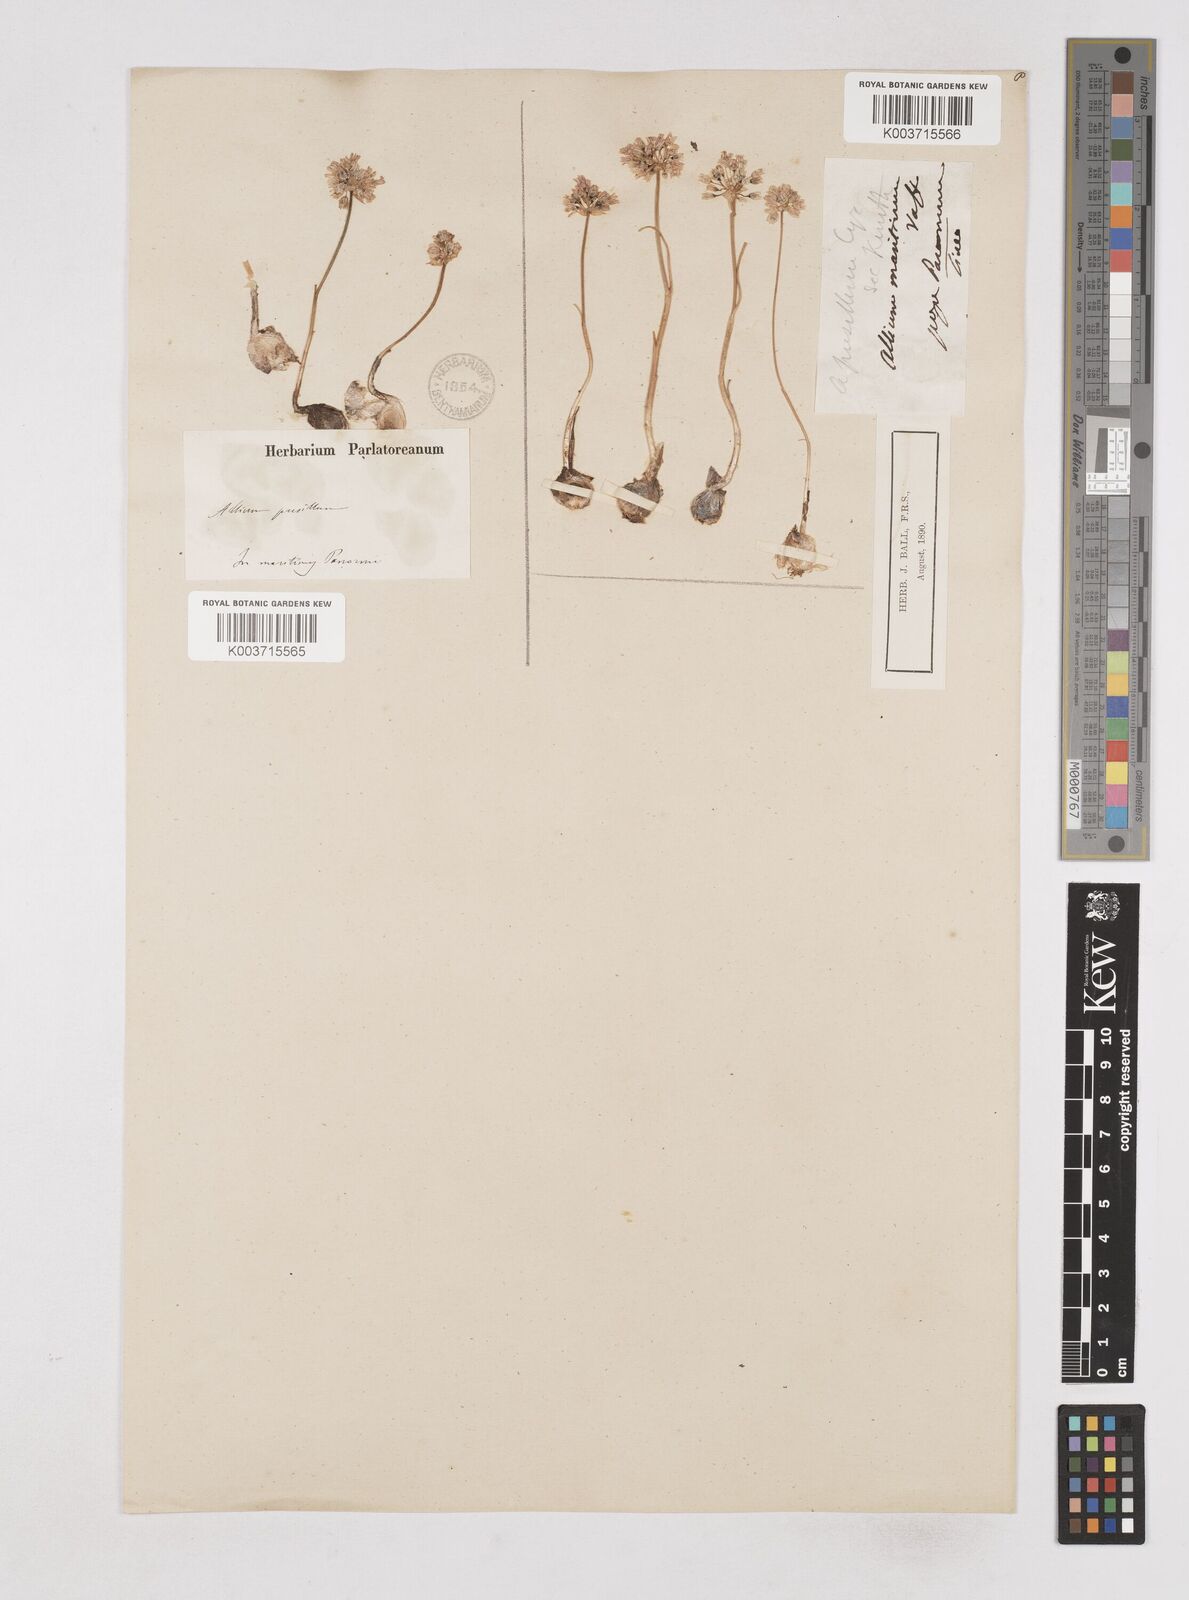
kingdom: Plantae
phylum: Tracheophyta
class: Liliopsida
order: Asparagales
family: Amaryllidaceae
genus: Allium
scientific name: Allium
